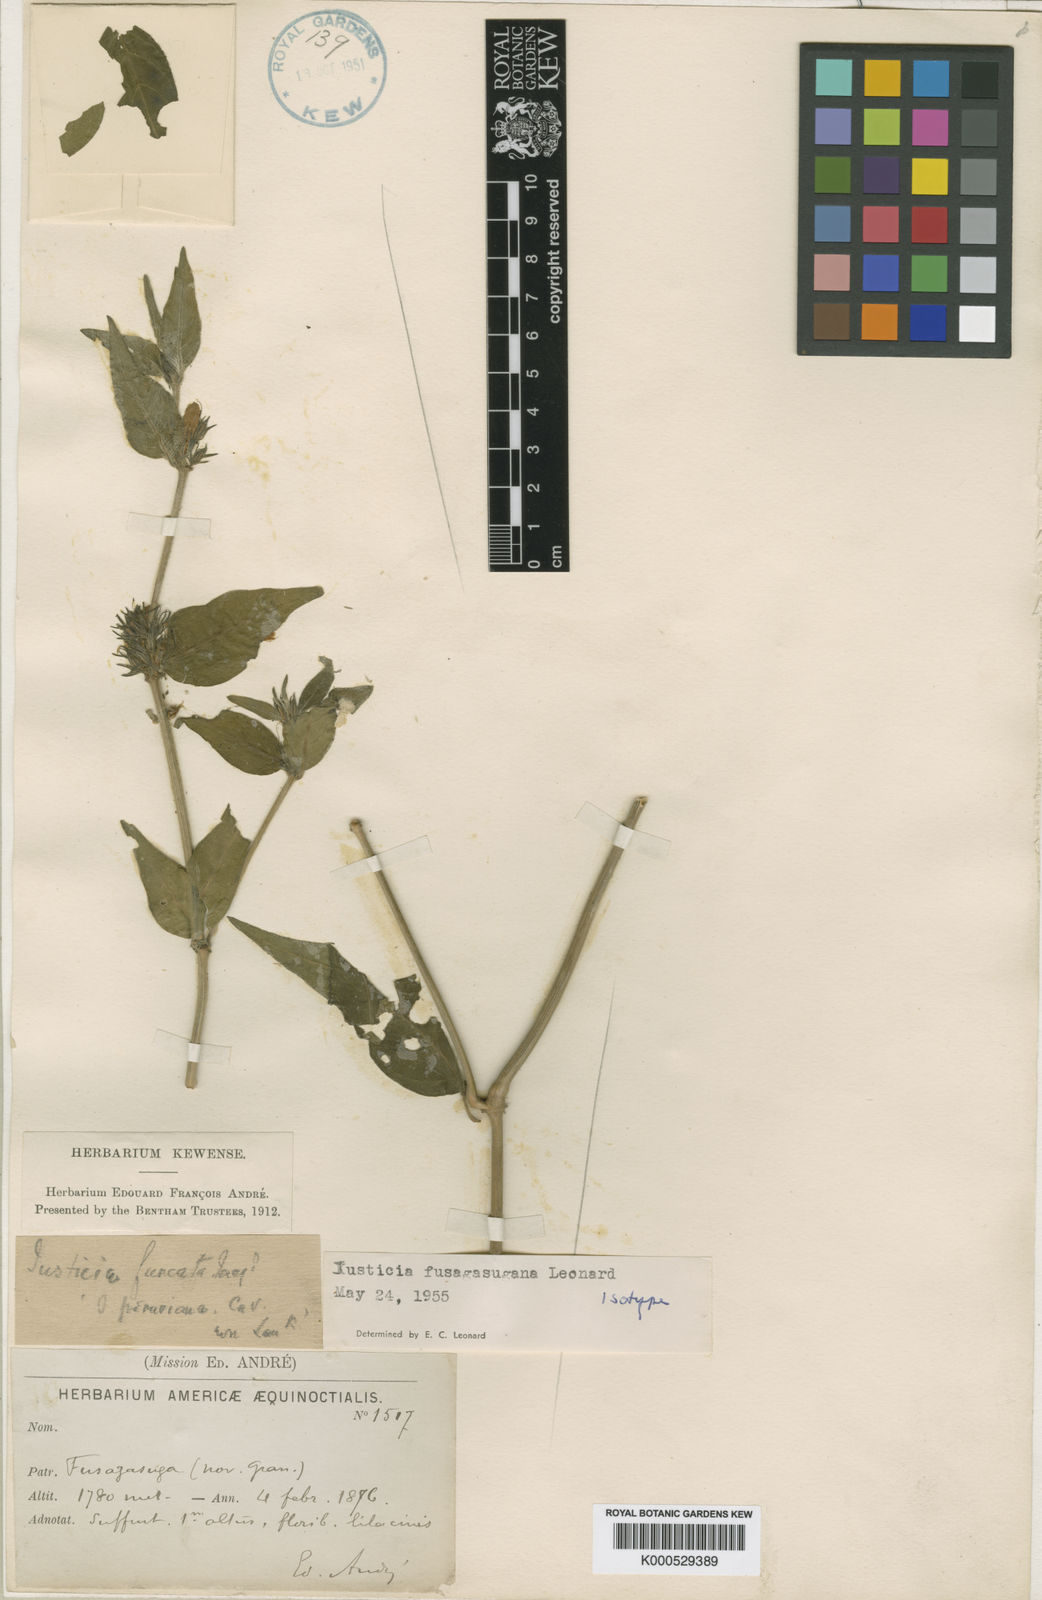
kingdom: Plantae
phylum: Tracheophyta
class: Magnoliopsida
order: Lamiales
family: Acanthaceae
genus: Justicia
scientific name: Justicia fusagasugana
